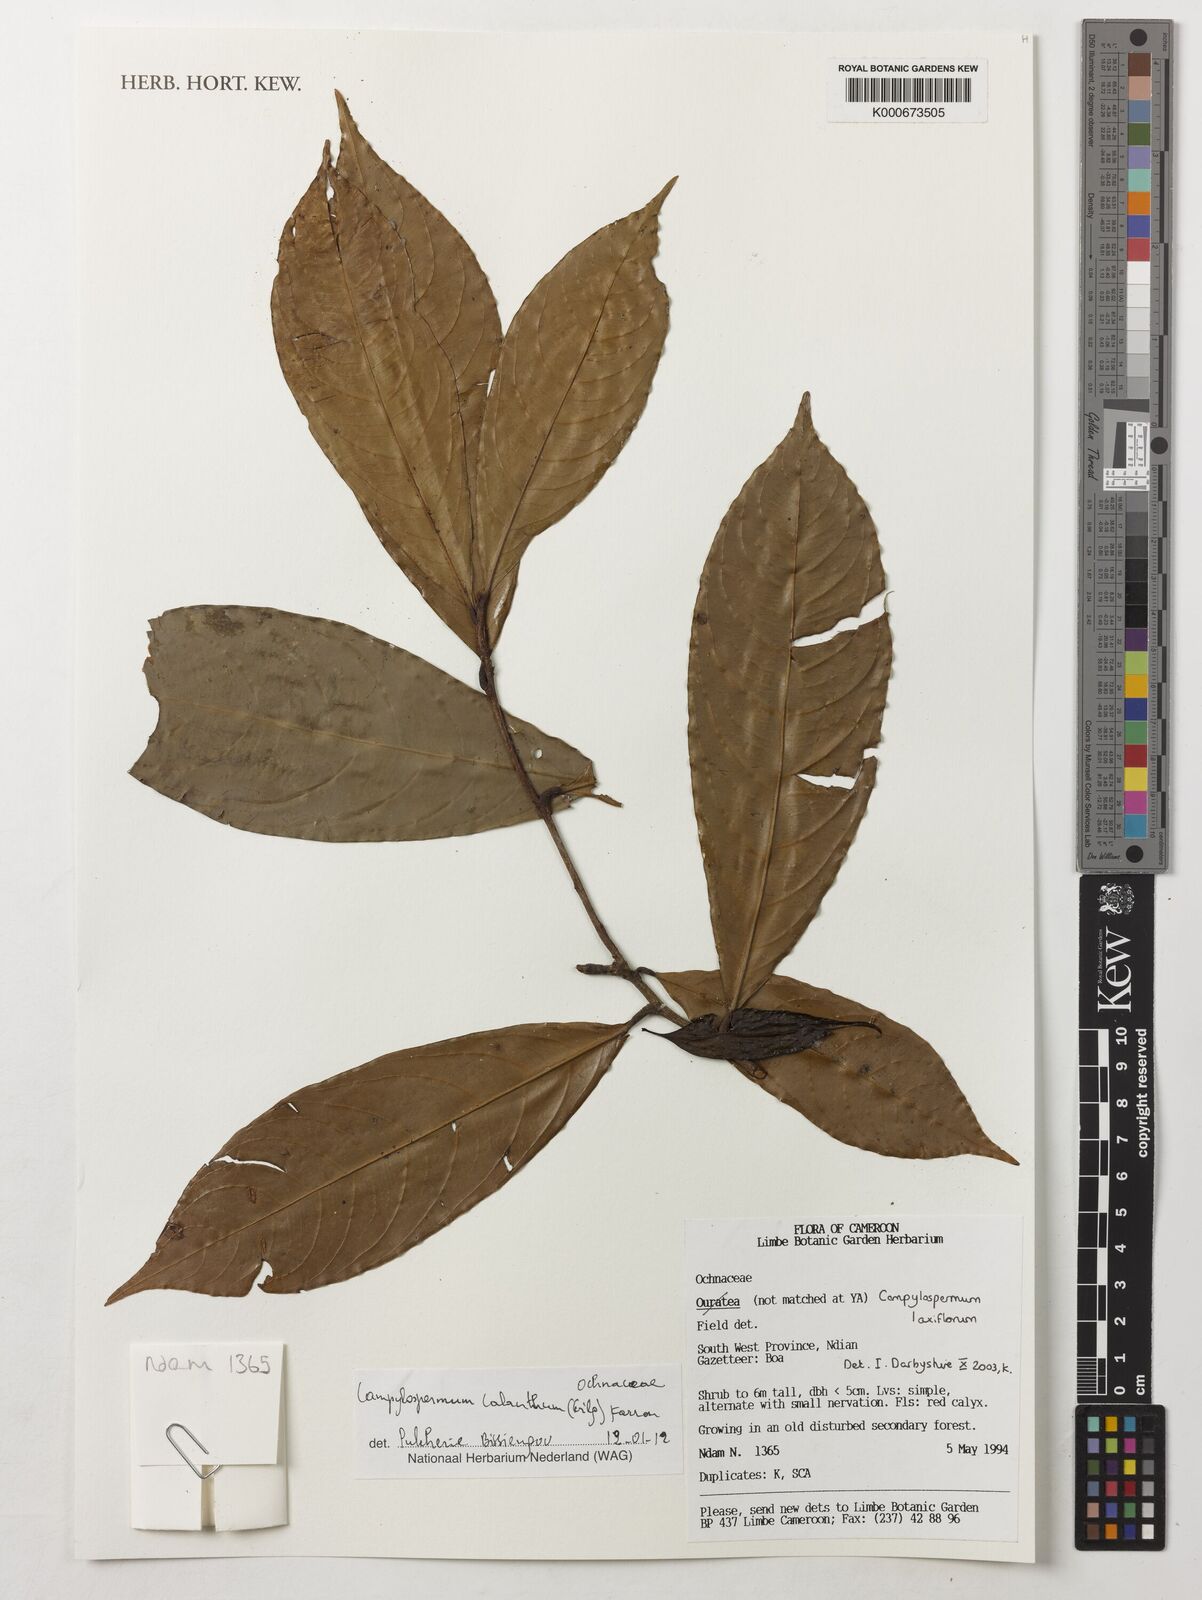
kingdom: Plantae
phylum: Tracheophyta
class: Magnoliopsida
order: Malpighiales
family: Ochnaceae
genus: Campylospermum
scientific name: Campylospermum calanthum
